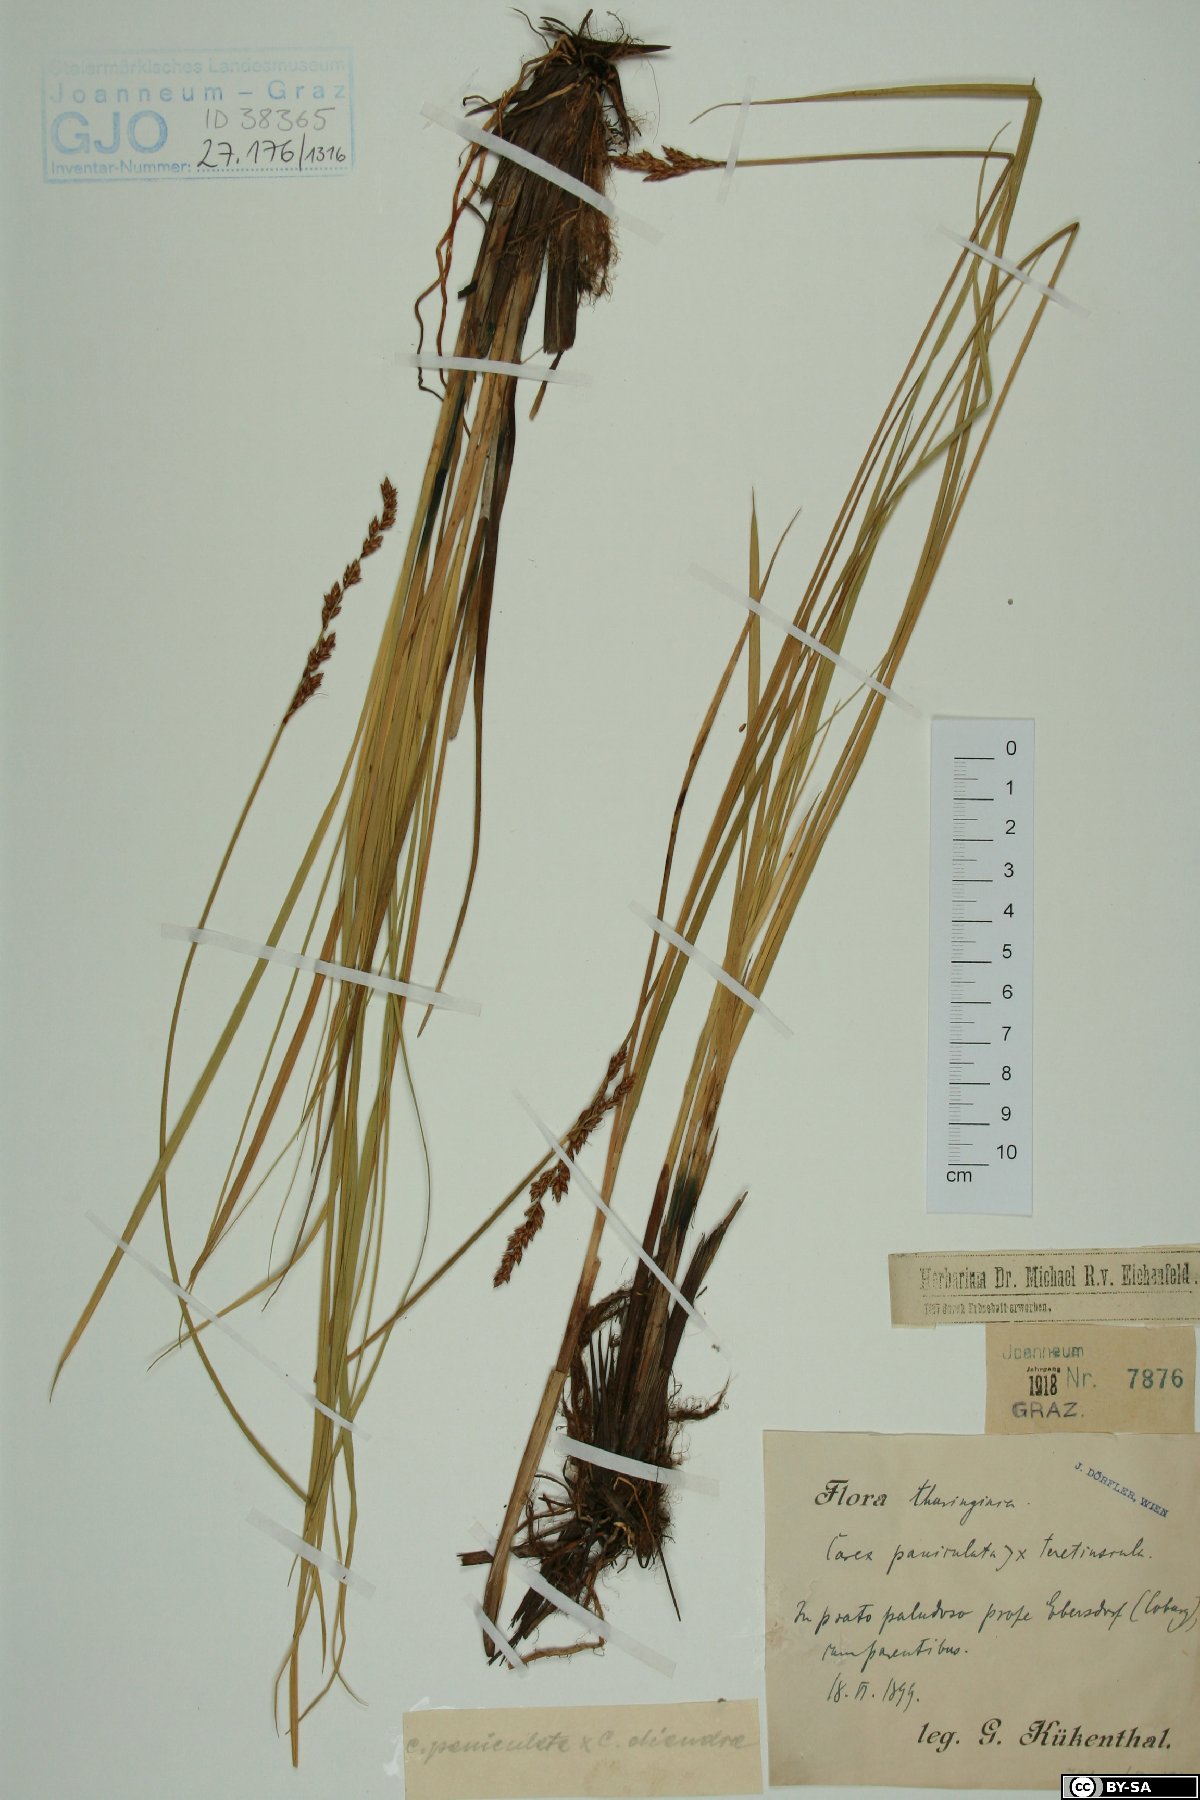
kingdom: Plantae
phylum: Tracheophyta
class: Liliopsida
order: Poales
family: Cyperaceae
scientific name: Cyperaceae
